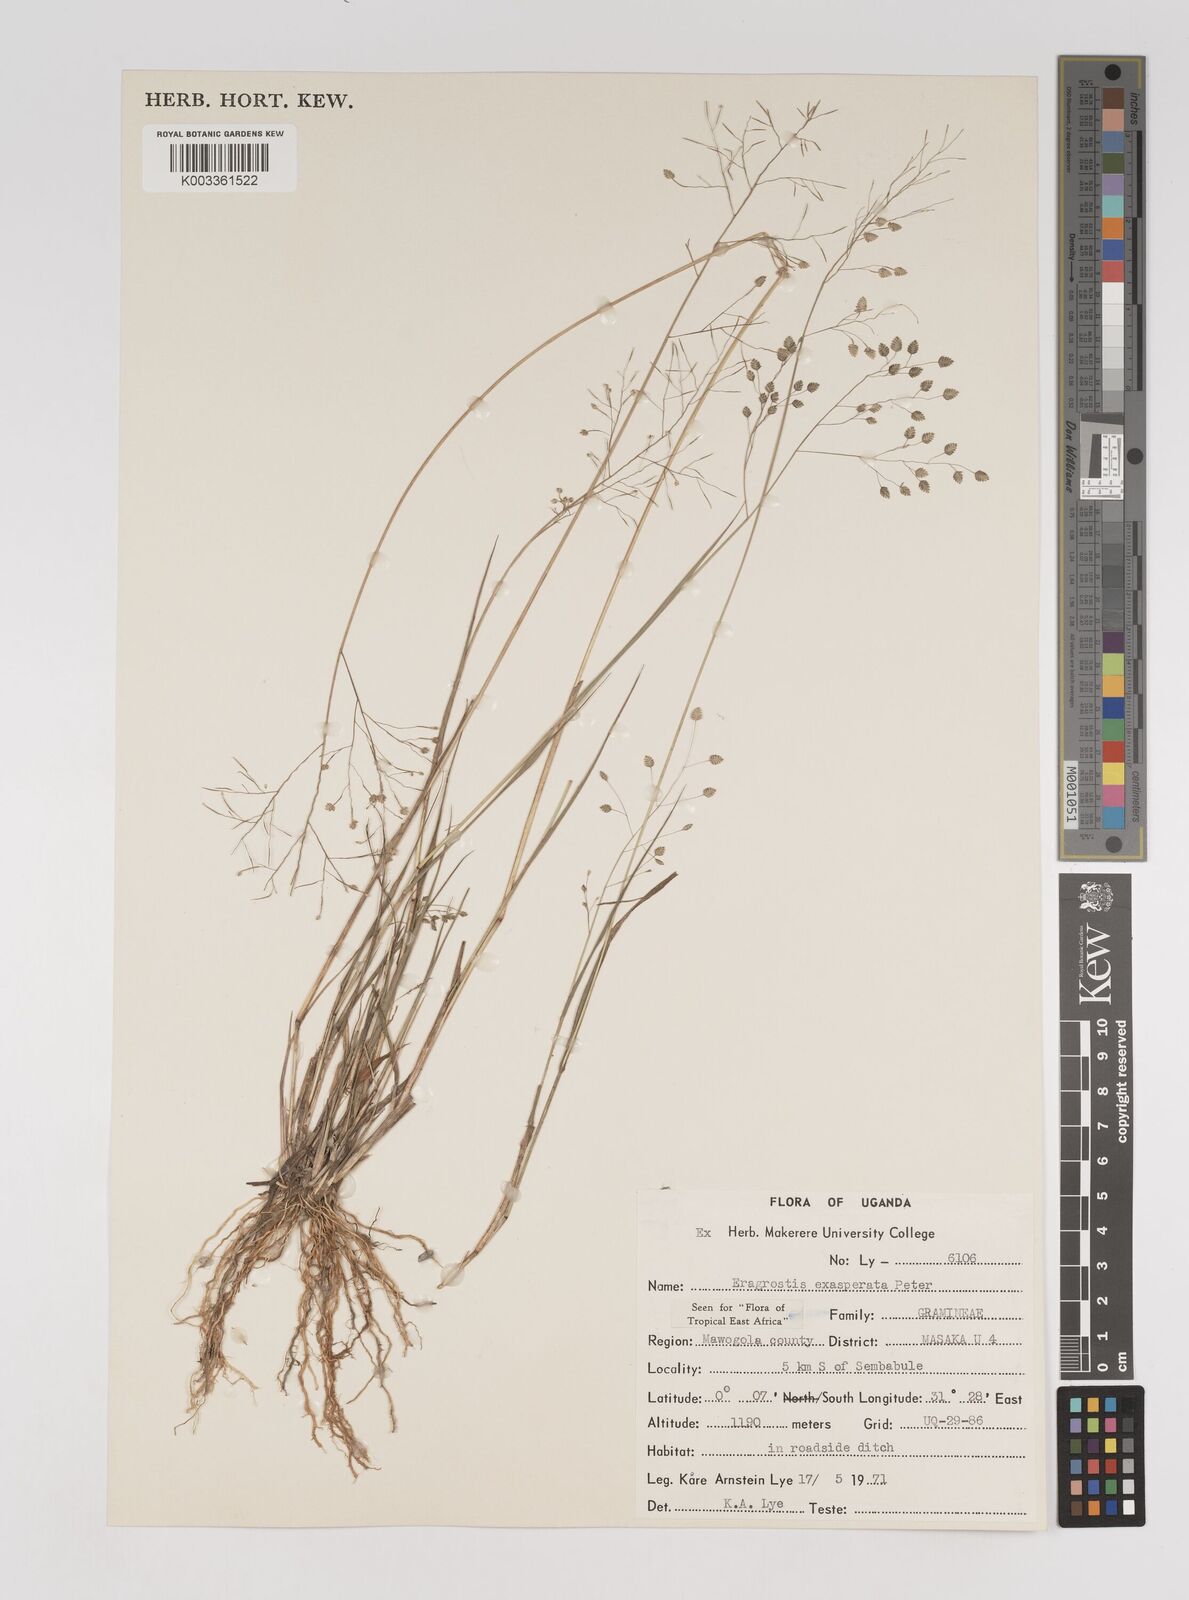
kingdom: Plantae
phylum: Tracheophyta
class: Liliopsida
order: Poales
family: Poaceae
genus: Eragrostis
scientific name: Eragrostis exasperata
